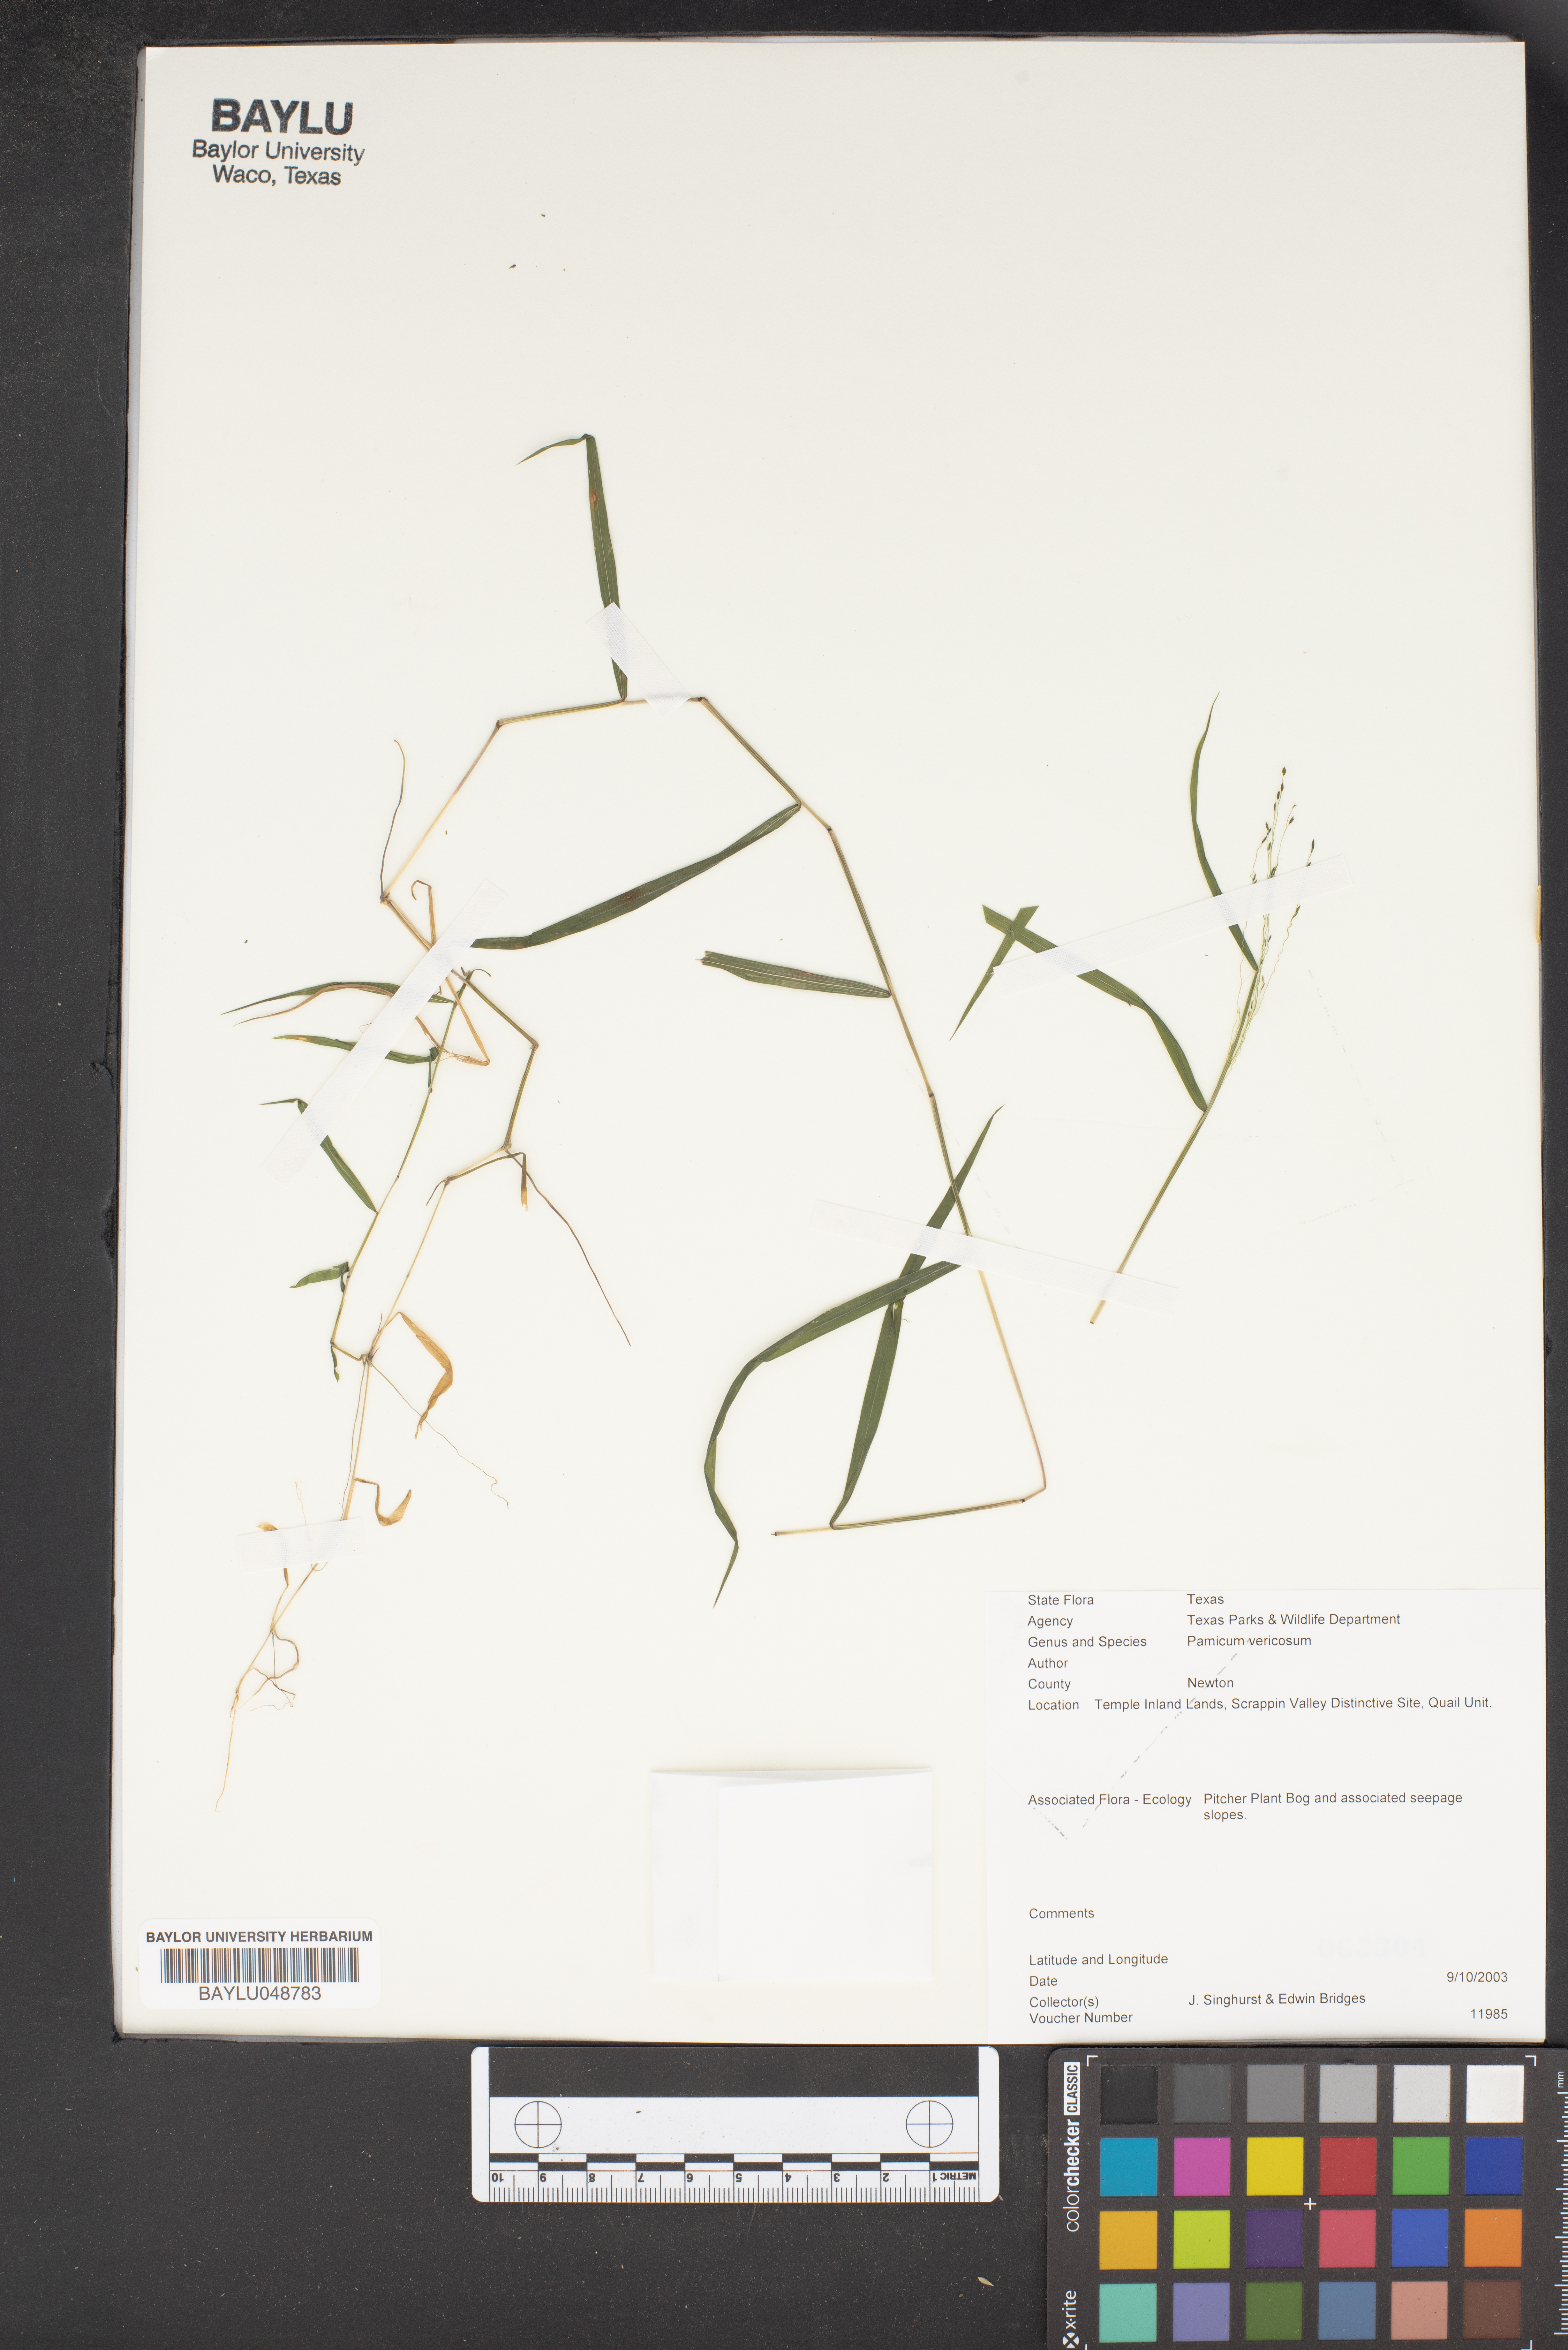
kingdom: Plantae
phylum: Tracheophyta
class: Liliopsida
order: Poales
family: Poaceae
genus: Kellochloa
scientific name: Kellochloa verrucosa
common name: Warty panic grass
